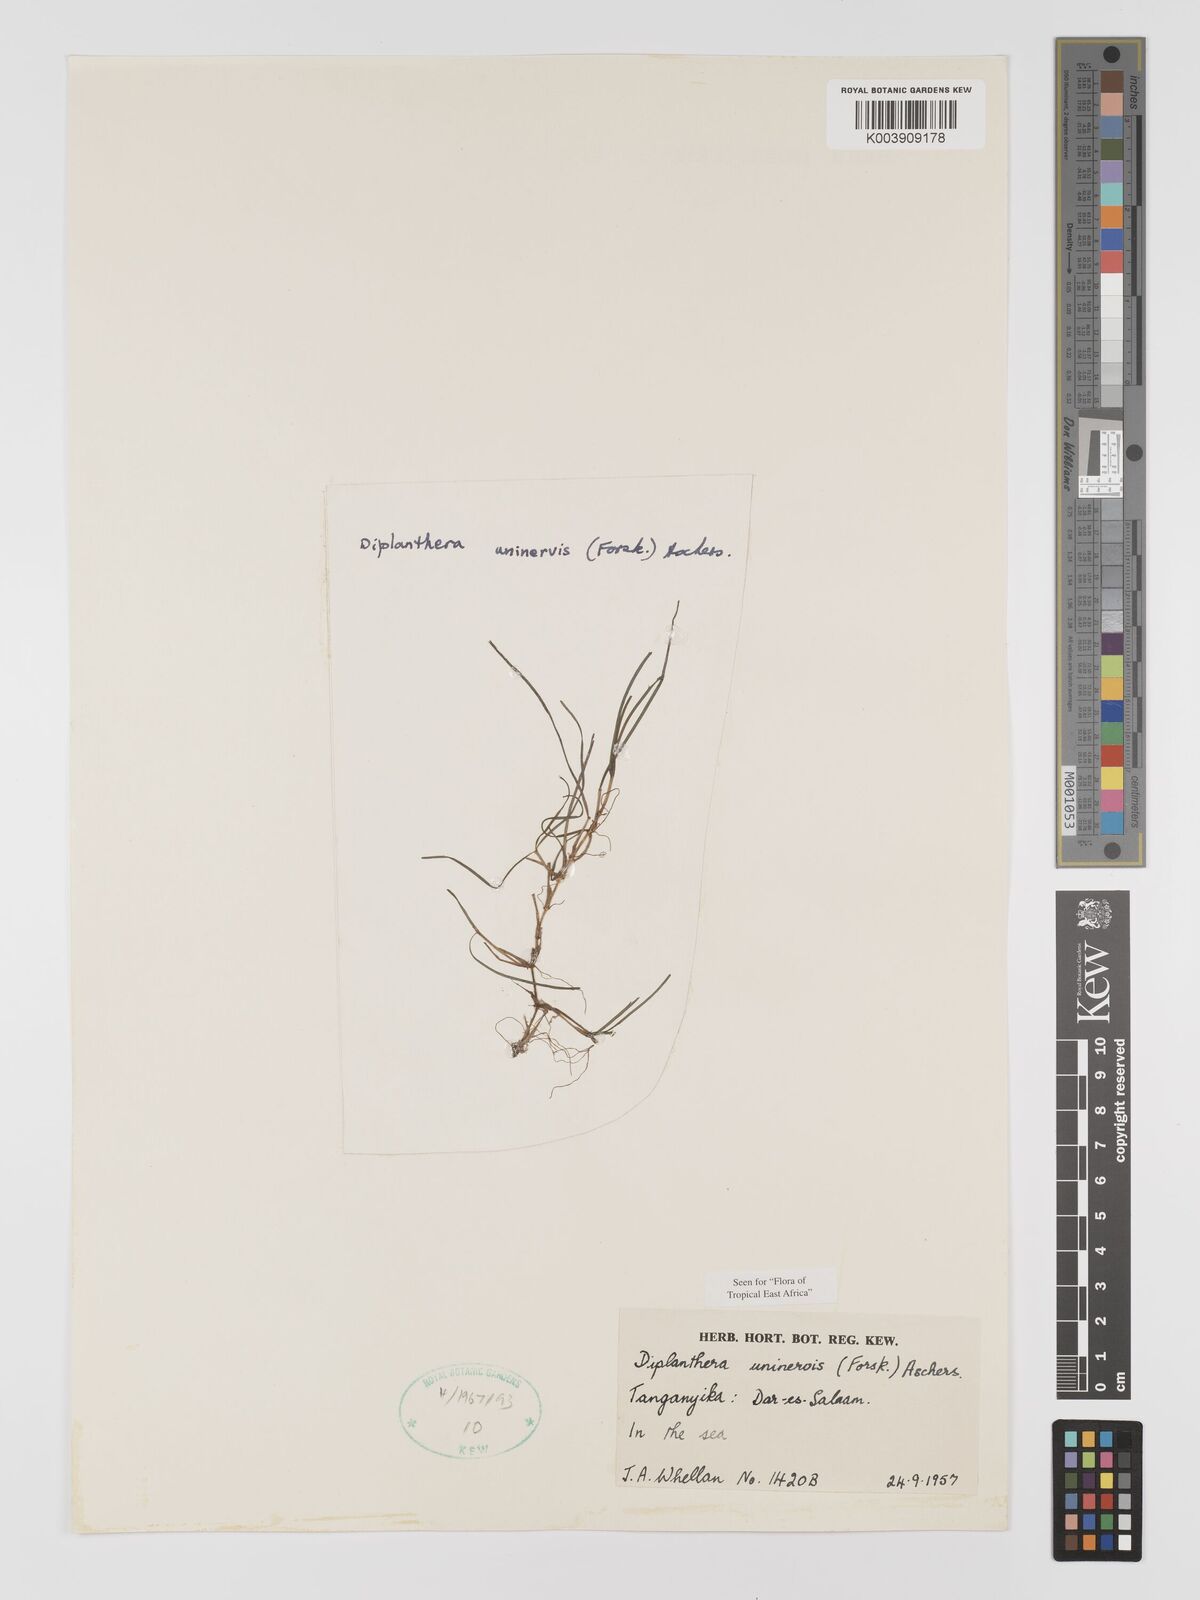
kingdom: Plantae
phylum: Tracheophyta
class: Liliopsida
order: Alismatales
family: Cymodoceaceae
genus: Halodule
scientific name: Halodule uninervis
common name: Narrowleaf seagrass
